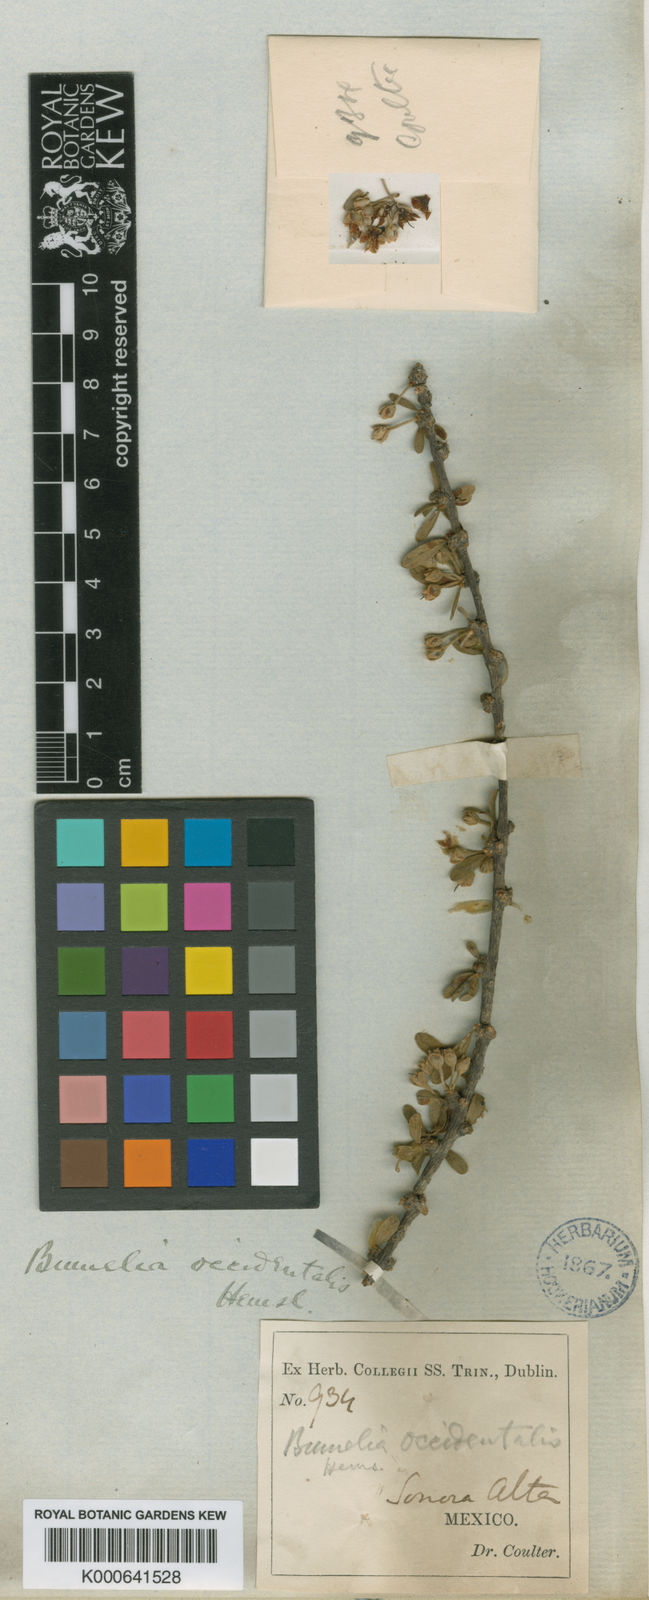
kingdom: Plantae
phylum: Tracheophyta
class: Magnoliopsida
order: Ericales
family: Sapotaceae
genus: Sideroxylon
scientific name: Sideroxylon occidentale
